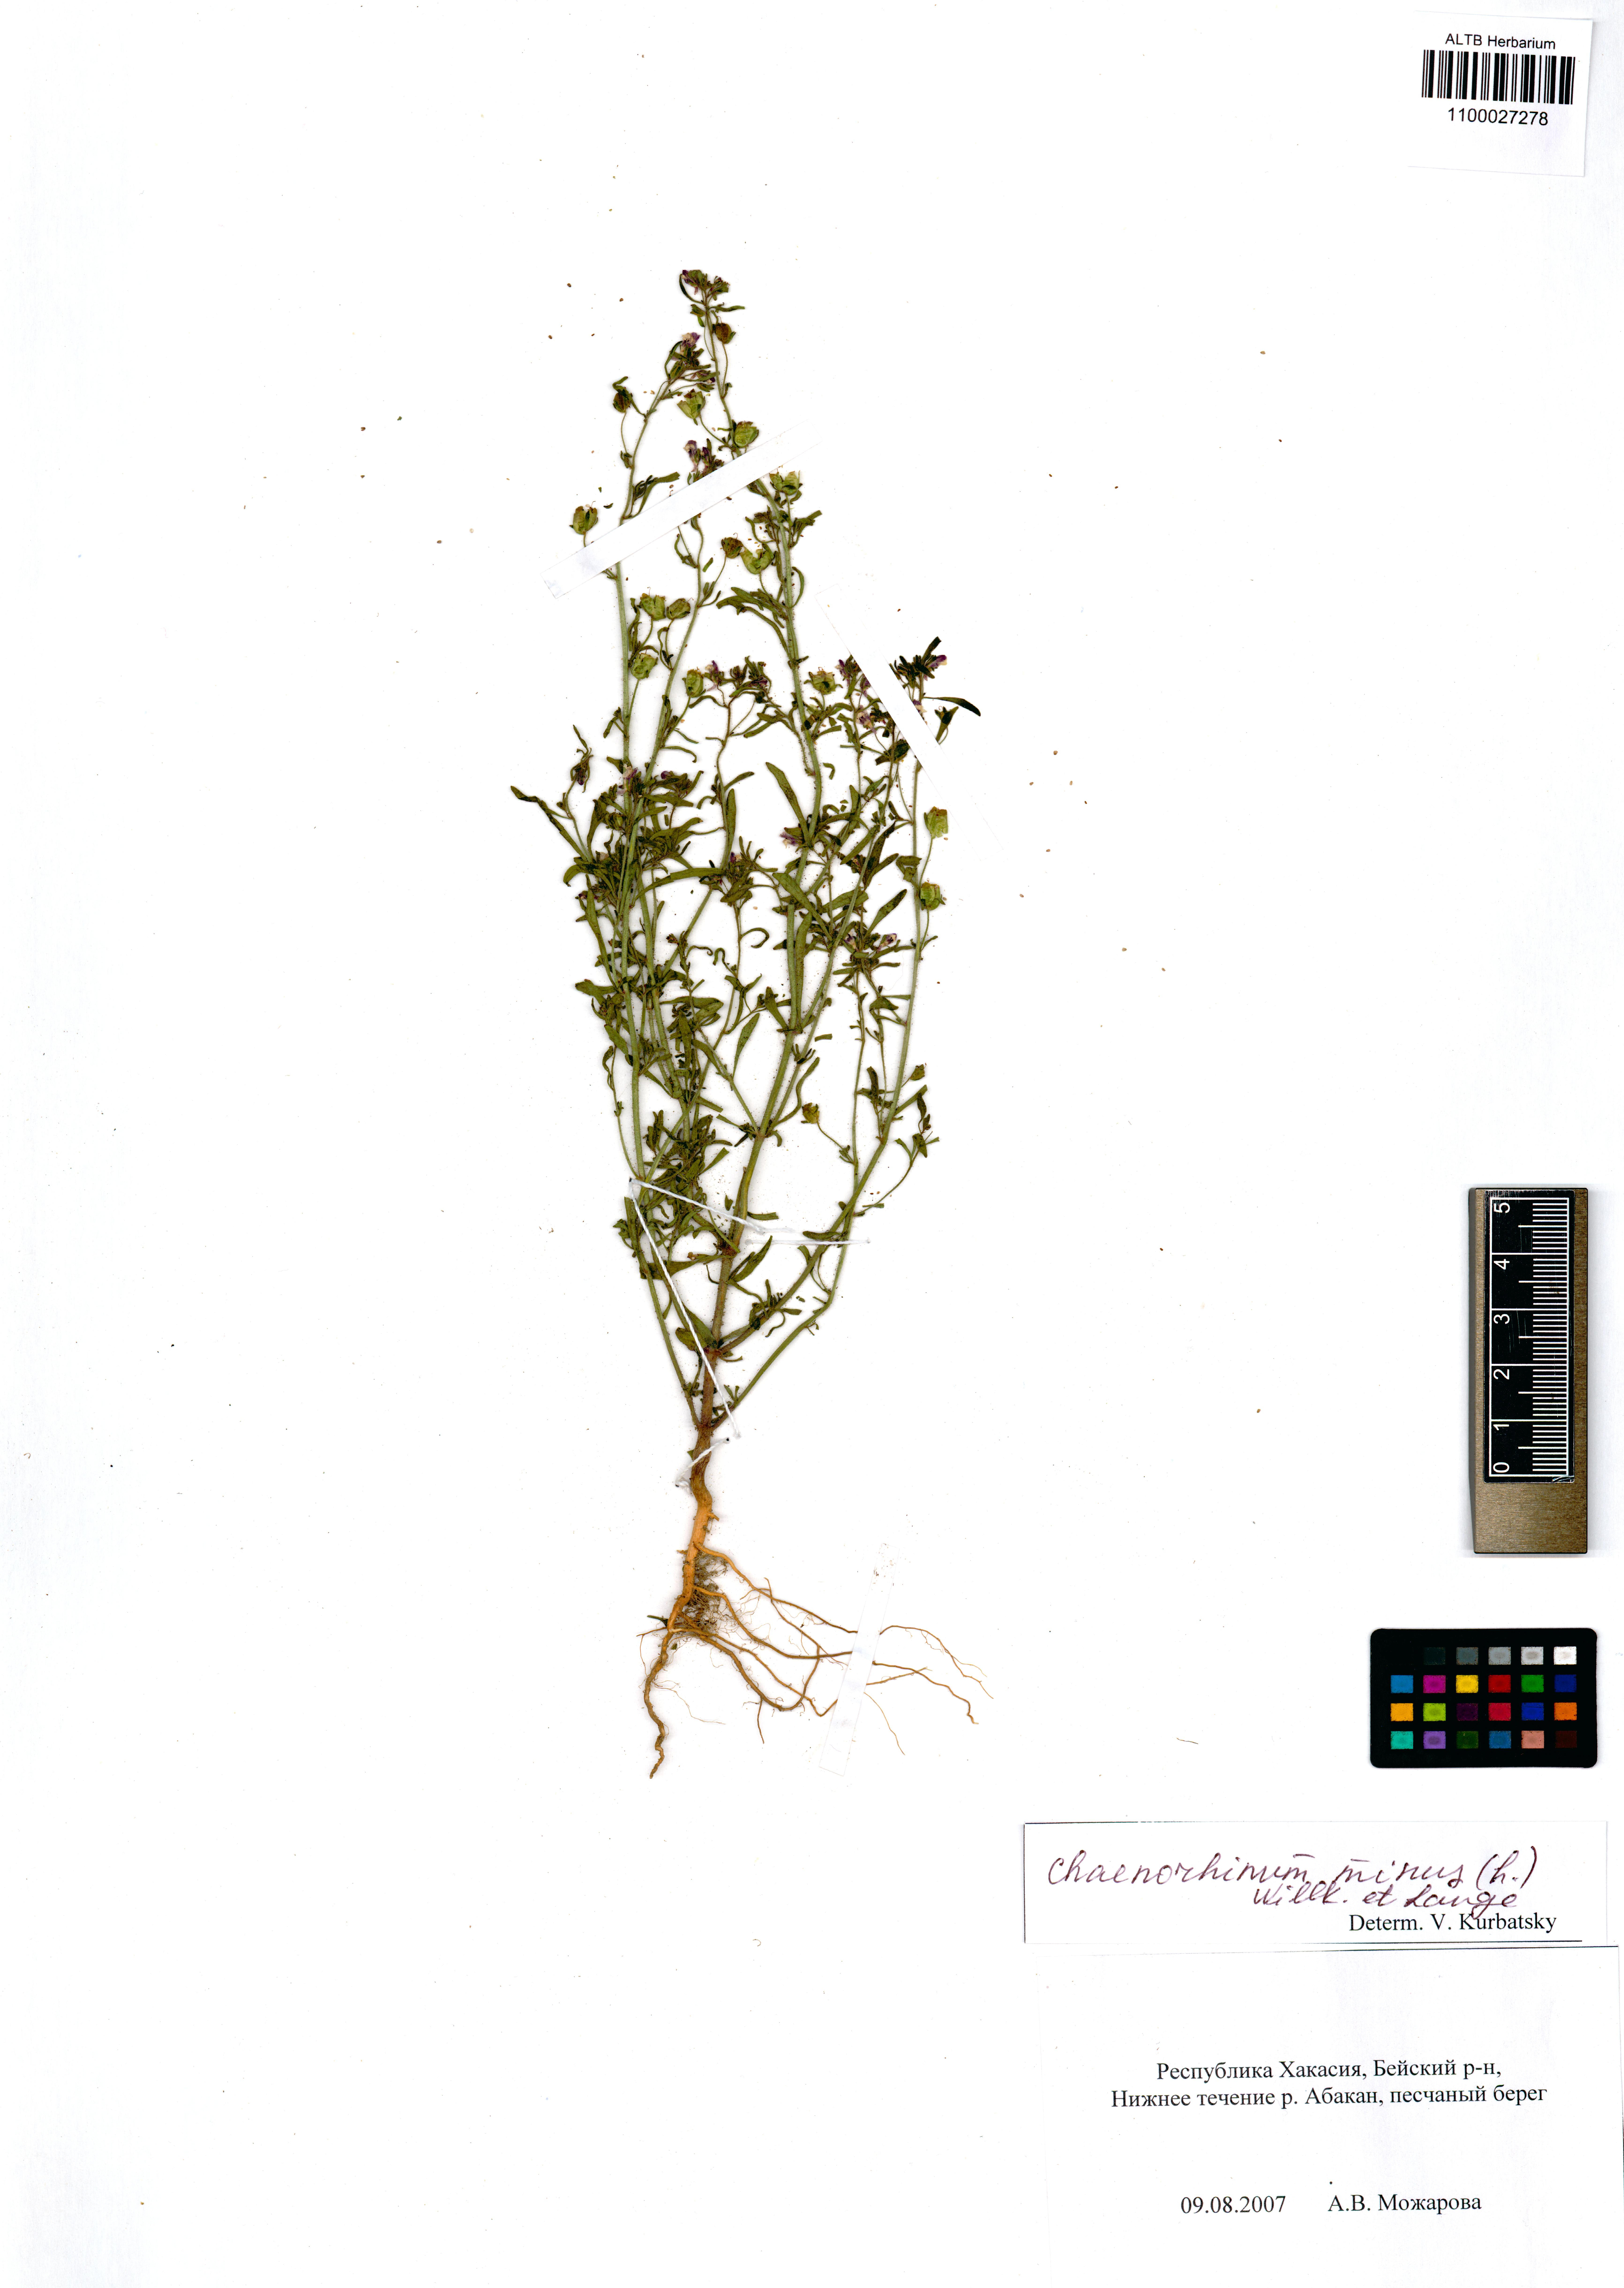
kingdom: Plantae
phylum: Tracheophyta
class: Magnoliopsida
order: Lamiales
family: Plantaginaceae
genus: Chaenorhinum
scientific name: Chaenorhinum minus
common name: Dwarf snapdragon
